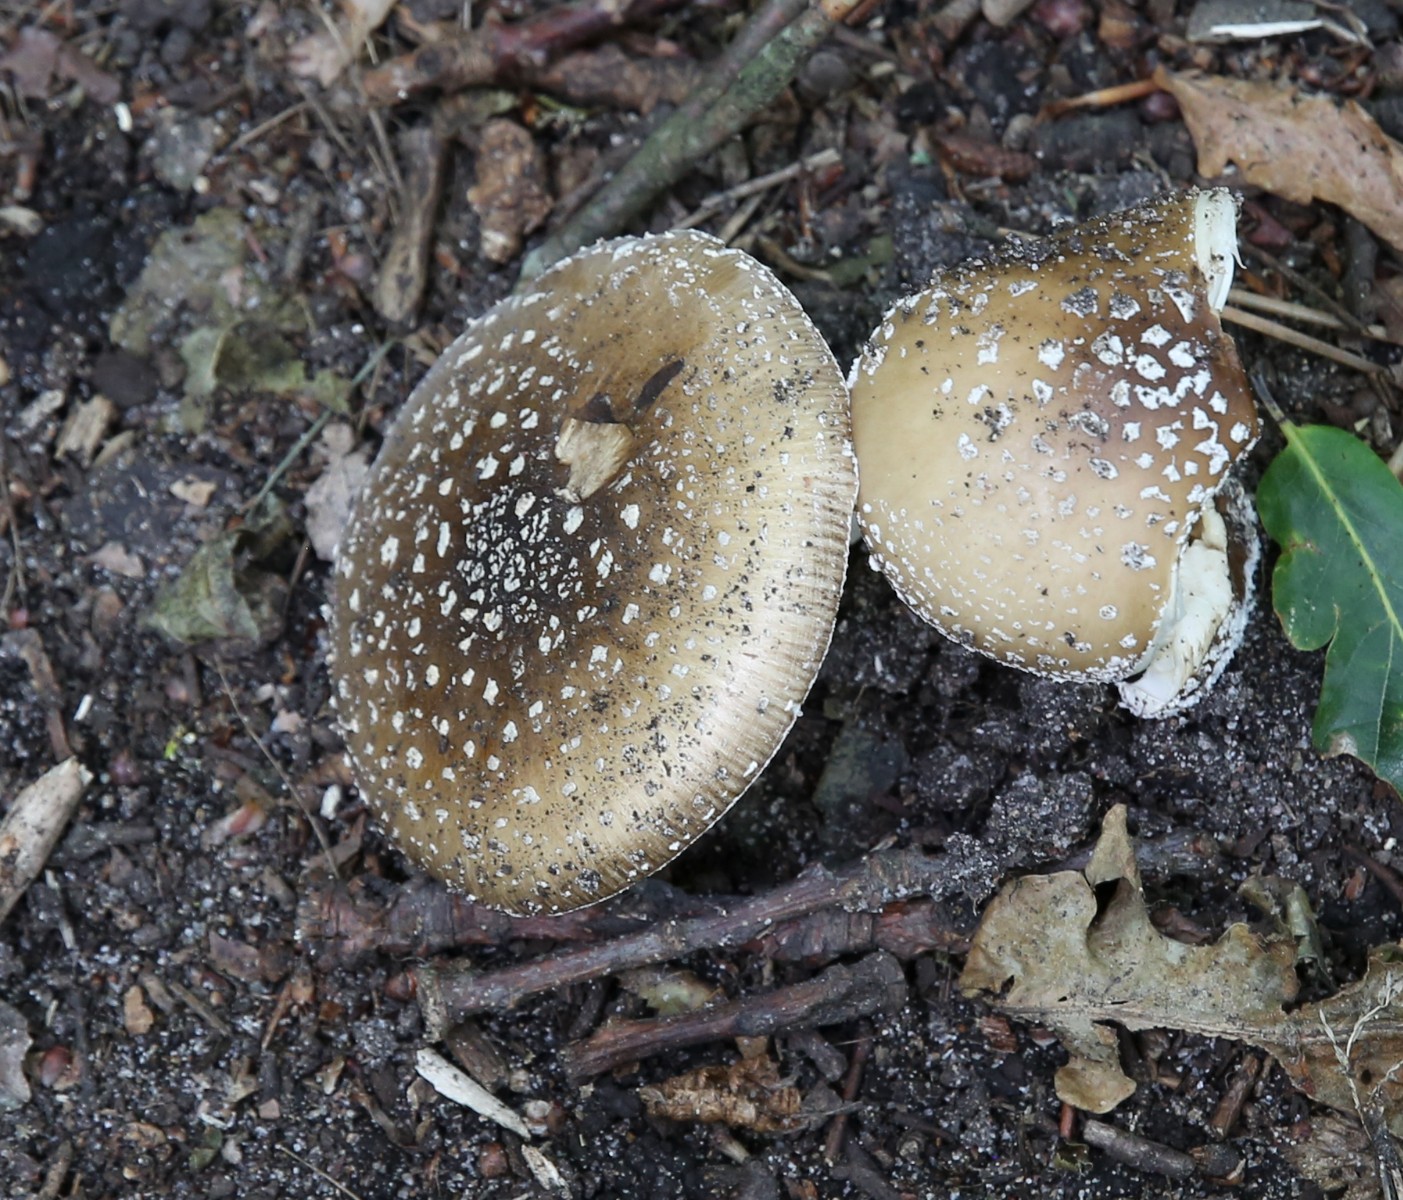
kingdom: Fungi
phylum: Basidiomycota
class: Agaricomycetes
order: Agaricales
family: Amanitaceae
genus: Amanita
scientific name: Amanita pantherina
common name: panter-fluesvamp
